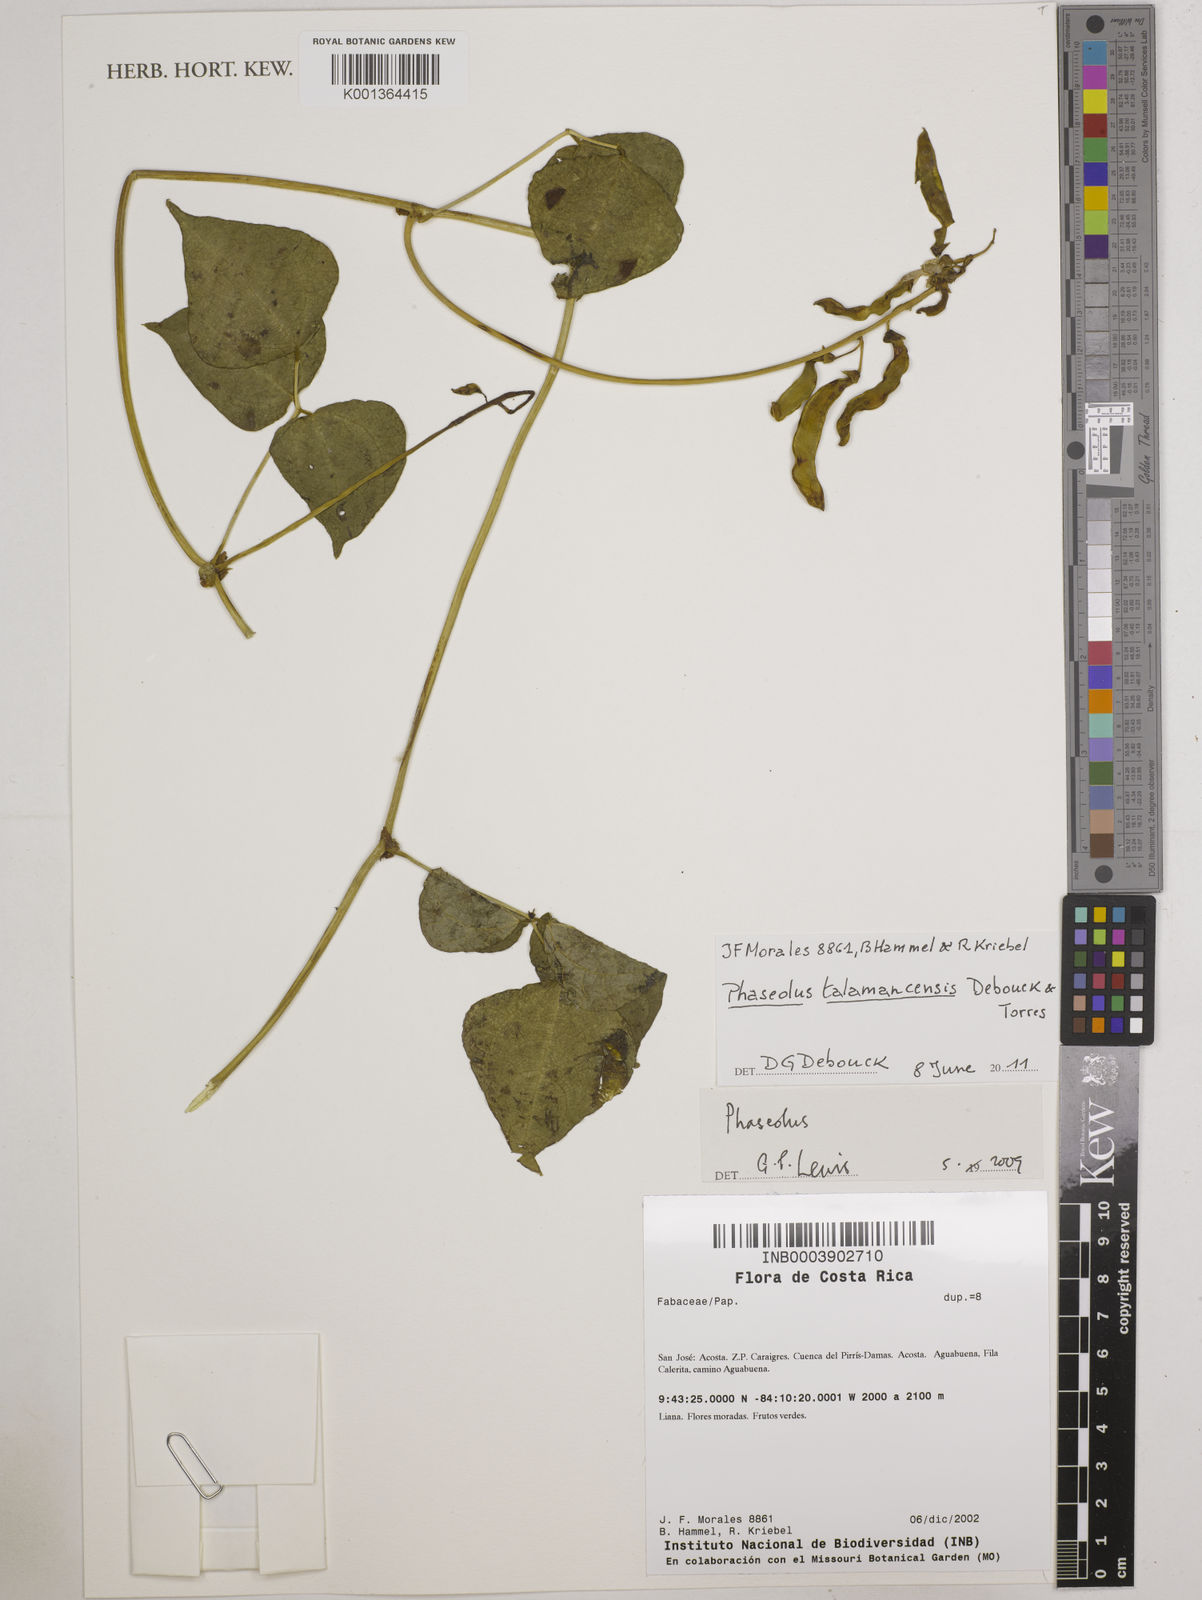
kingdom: Plantae
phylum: Tracheophyta
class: Magnoliopsida
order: Fabales
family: Fabaceae
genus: Phaseolus
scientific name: Phaseolus talamancensis
